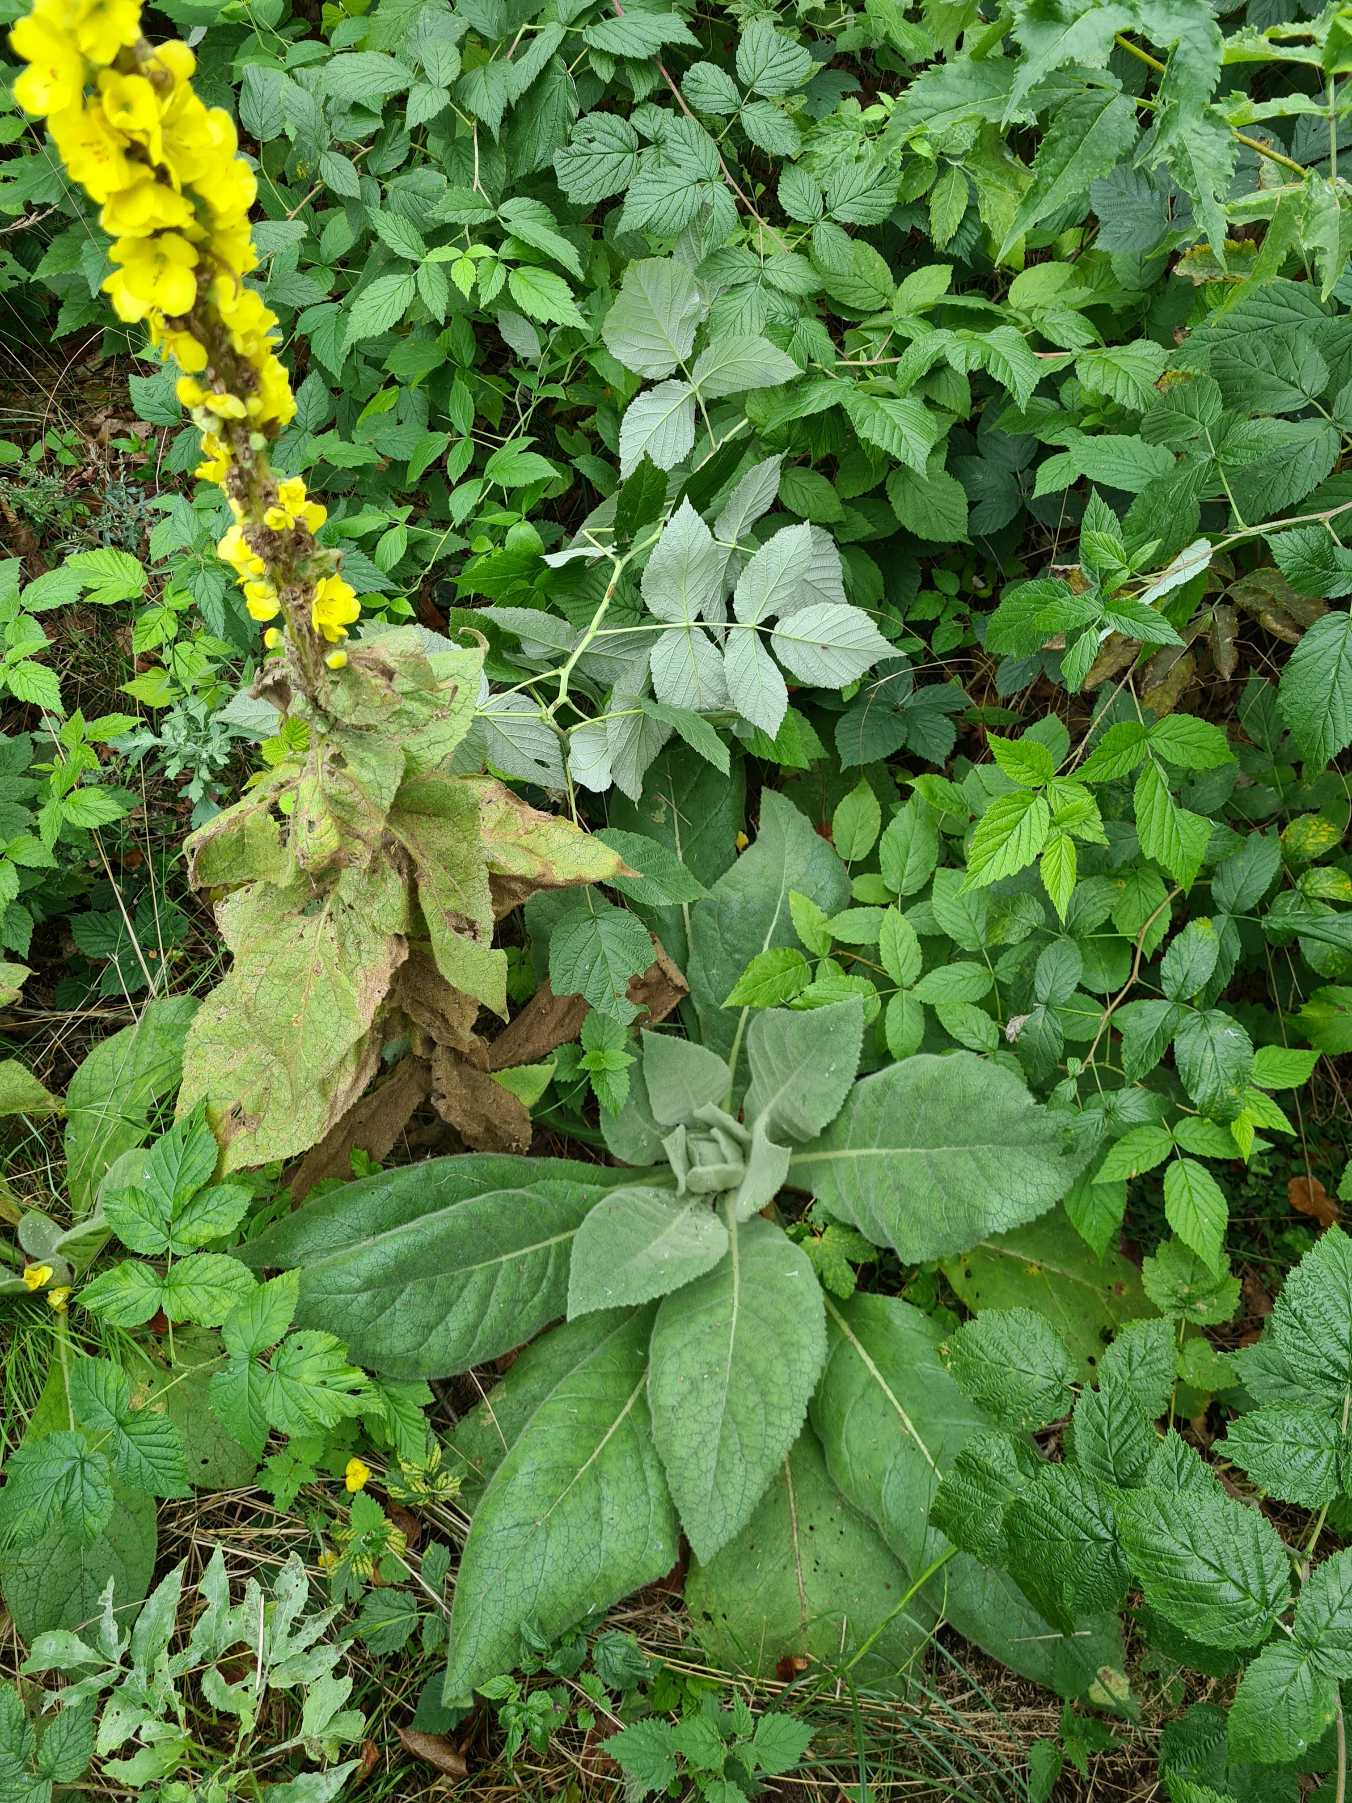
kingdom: Plantae
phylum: Tracheophyta
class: Magnoliopsida
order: Lamiales
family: Scrophulariaceae
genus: Verbascum
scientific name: Verbascum densiflorum
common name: Uldbladet kongelys
